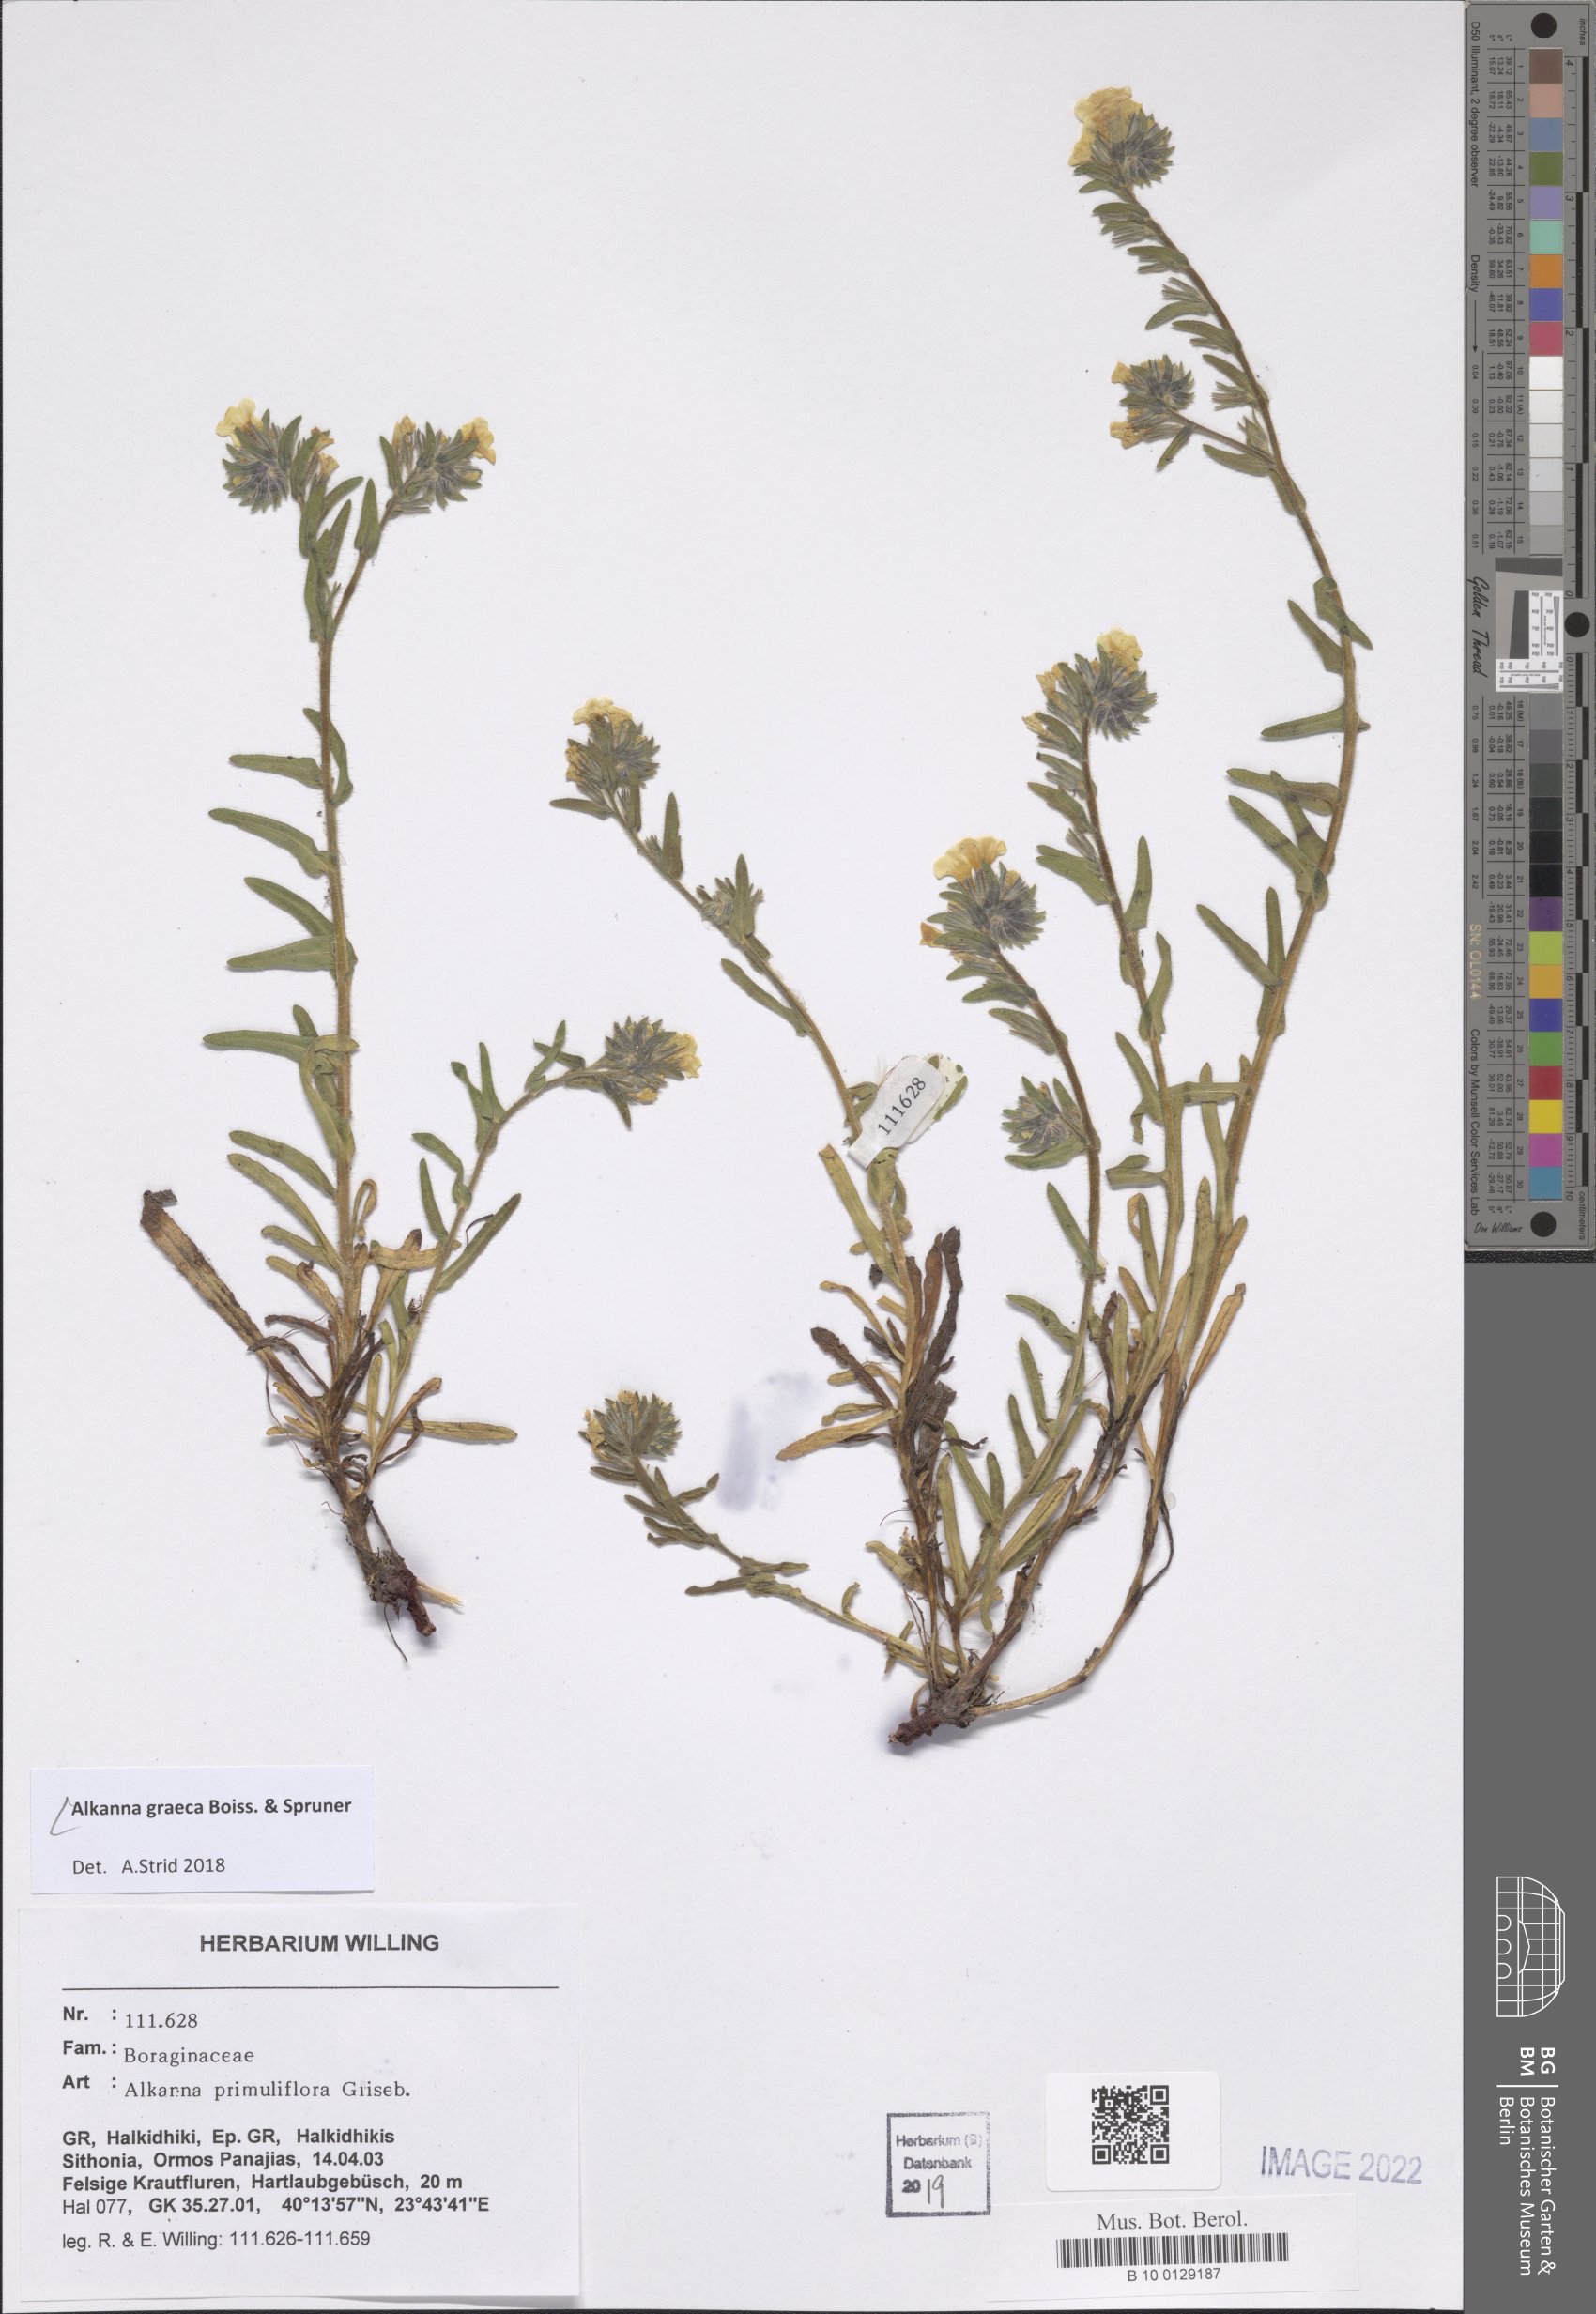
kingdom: Plantae
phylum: Tracheophyta
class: Magnoliopsida
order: Boraginales
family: Boraginaceae
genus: Alkanna
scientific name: Alkanna graeca
